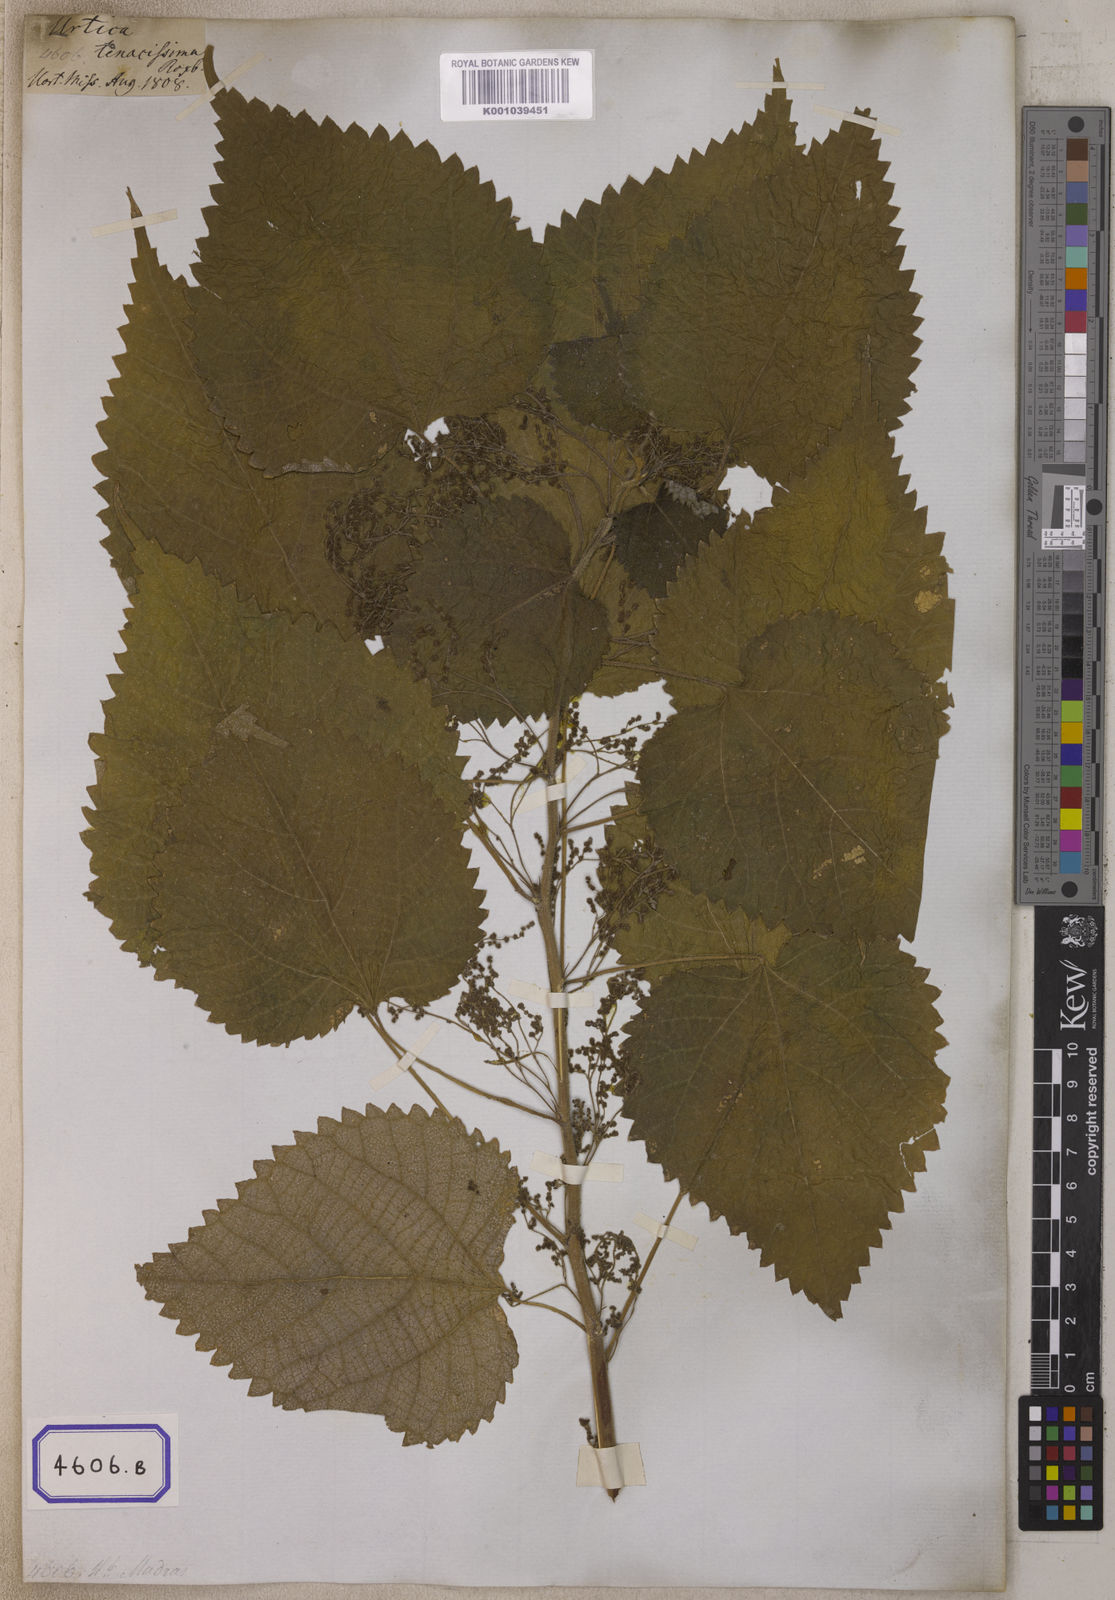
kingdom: Plantae
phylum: Tracheophyta
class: Magnoliopsida
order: Rosales
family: Urticaceae
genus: Boehmeria
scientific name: Boehmeria nivea
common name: Ramie chinese grass
